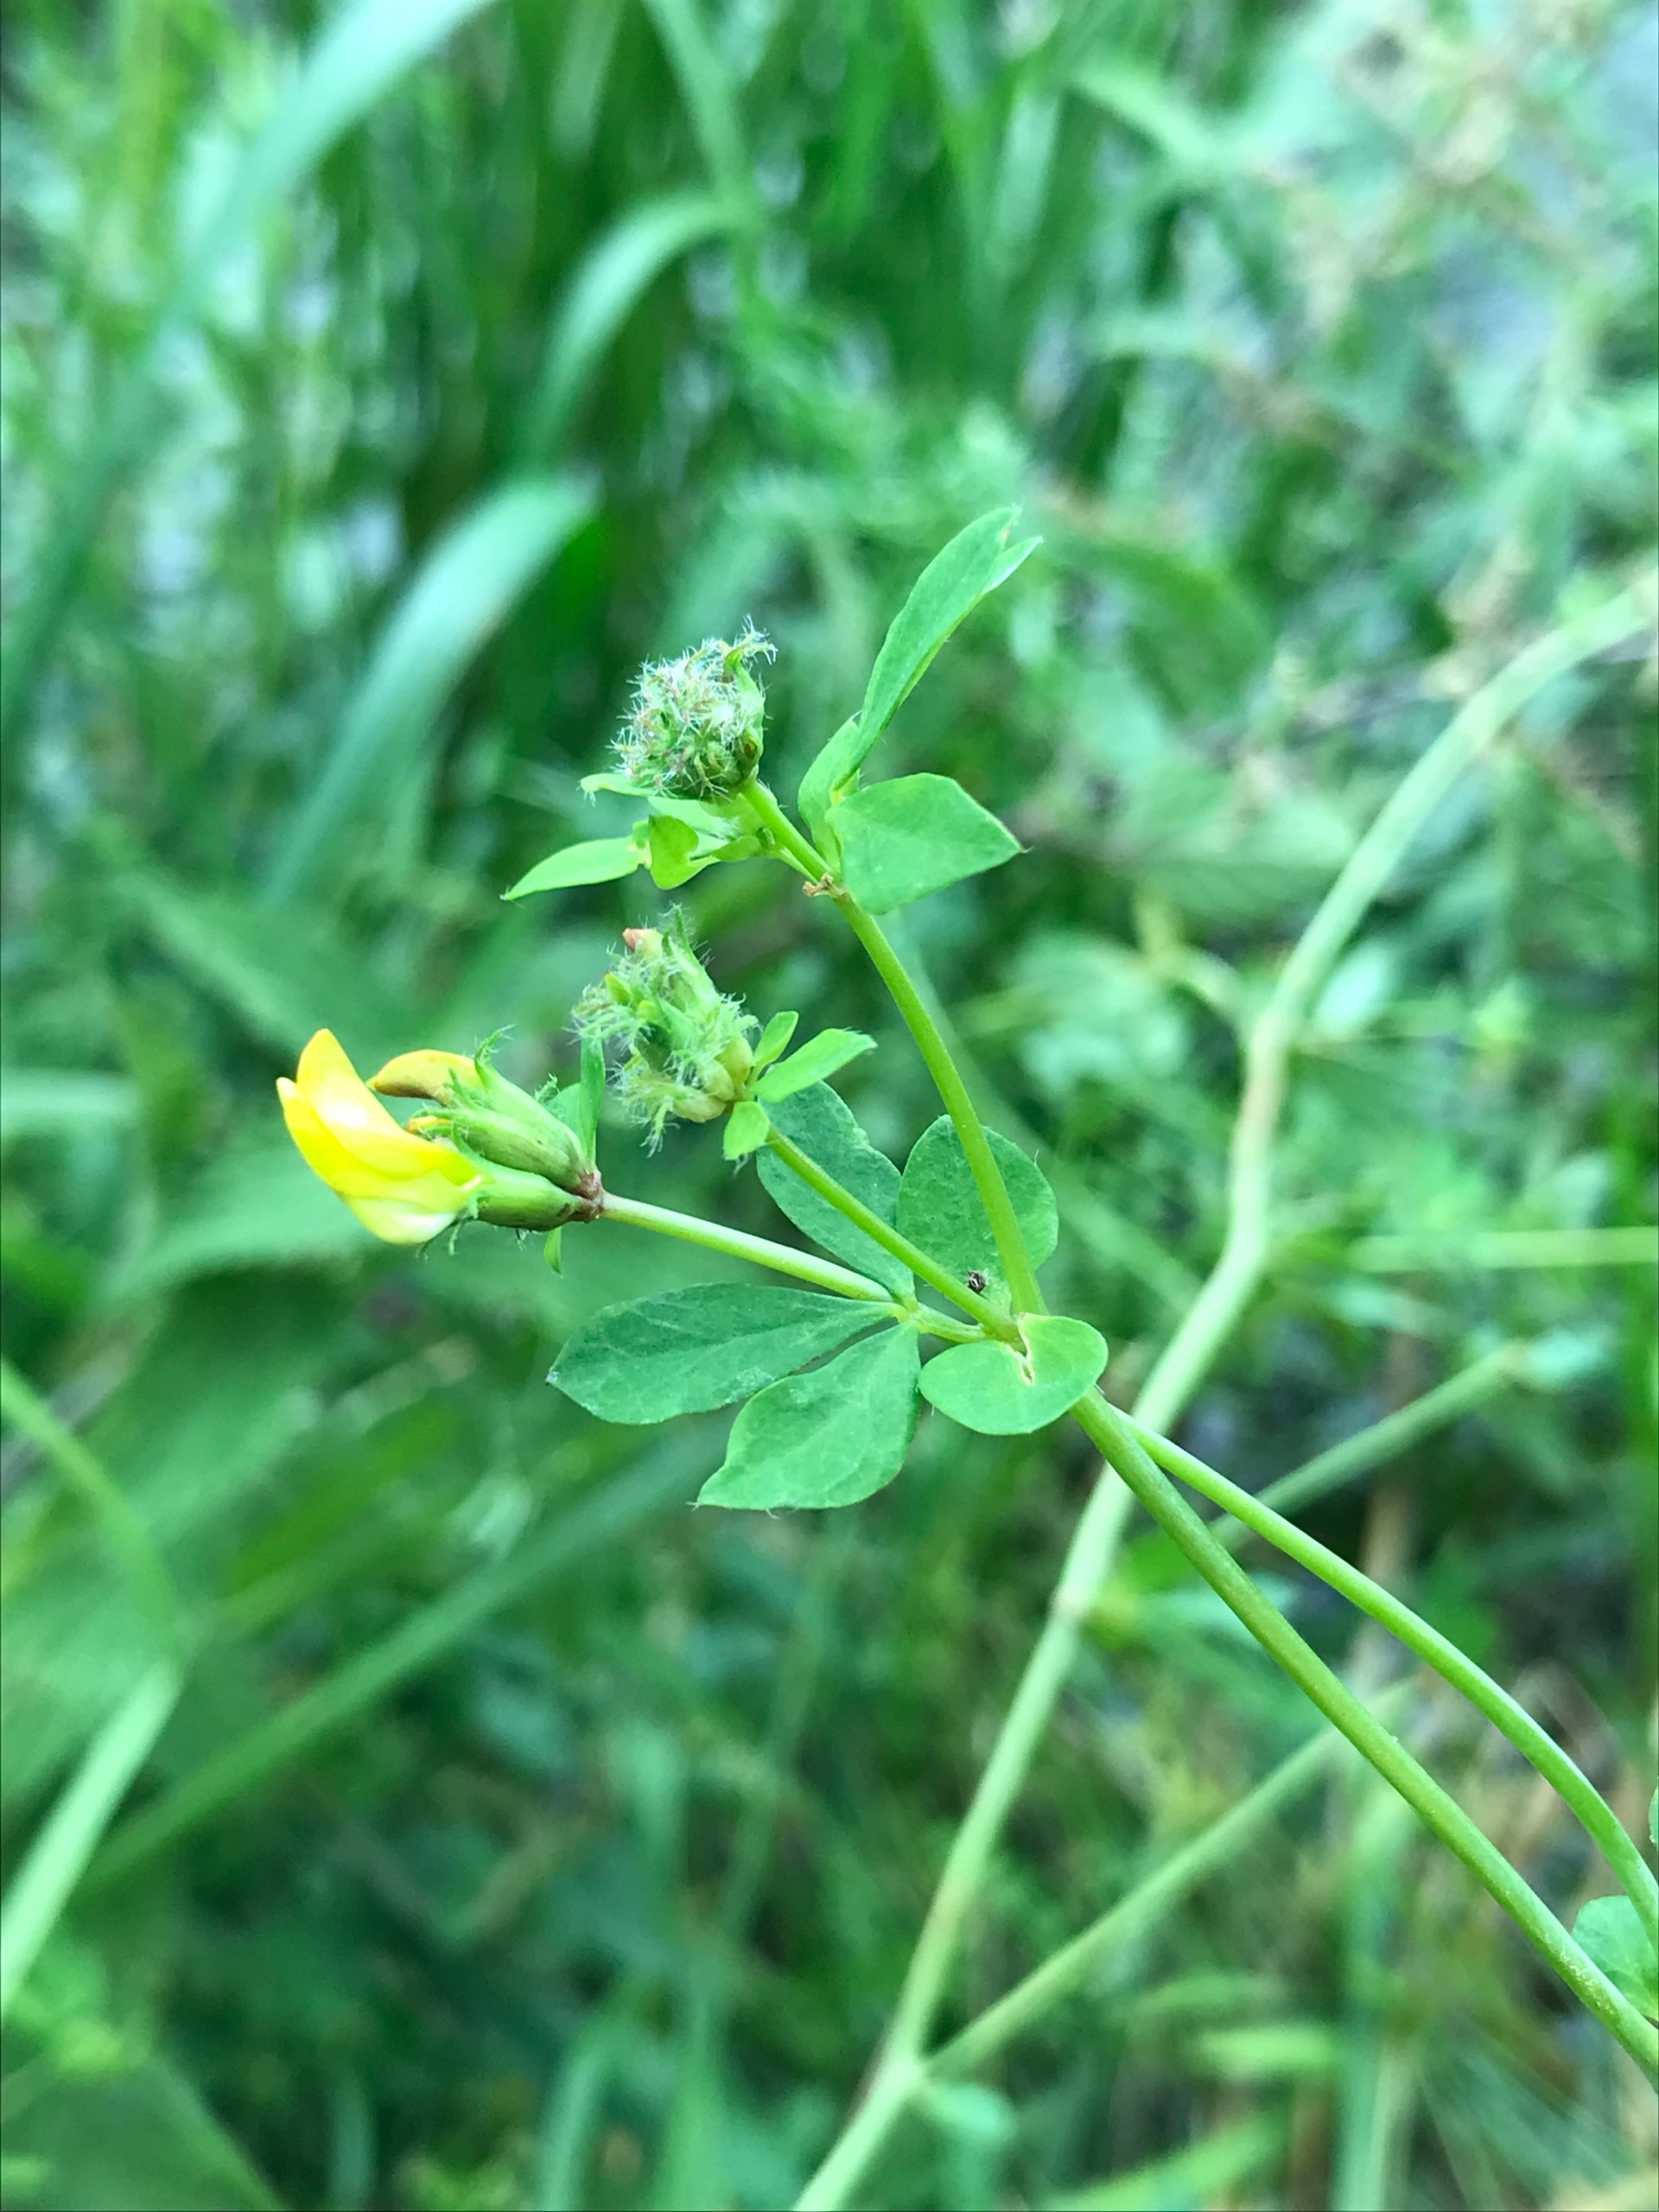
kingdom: Plantae
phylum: Tracheophyta
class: Magnoliopsida
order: Fabales
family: Fabaceae
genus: Lotus
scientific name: Lotus pedunculatus
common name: Sump-kællingetand
